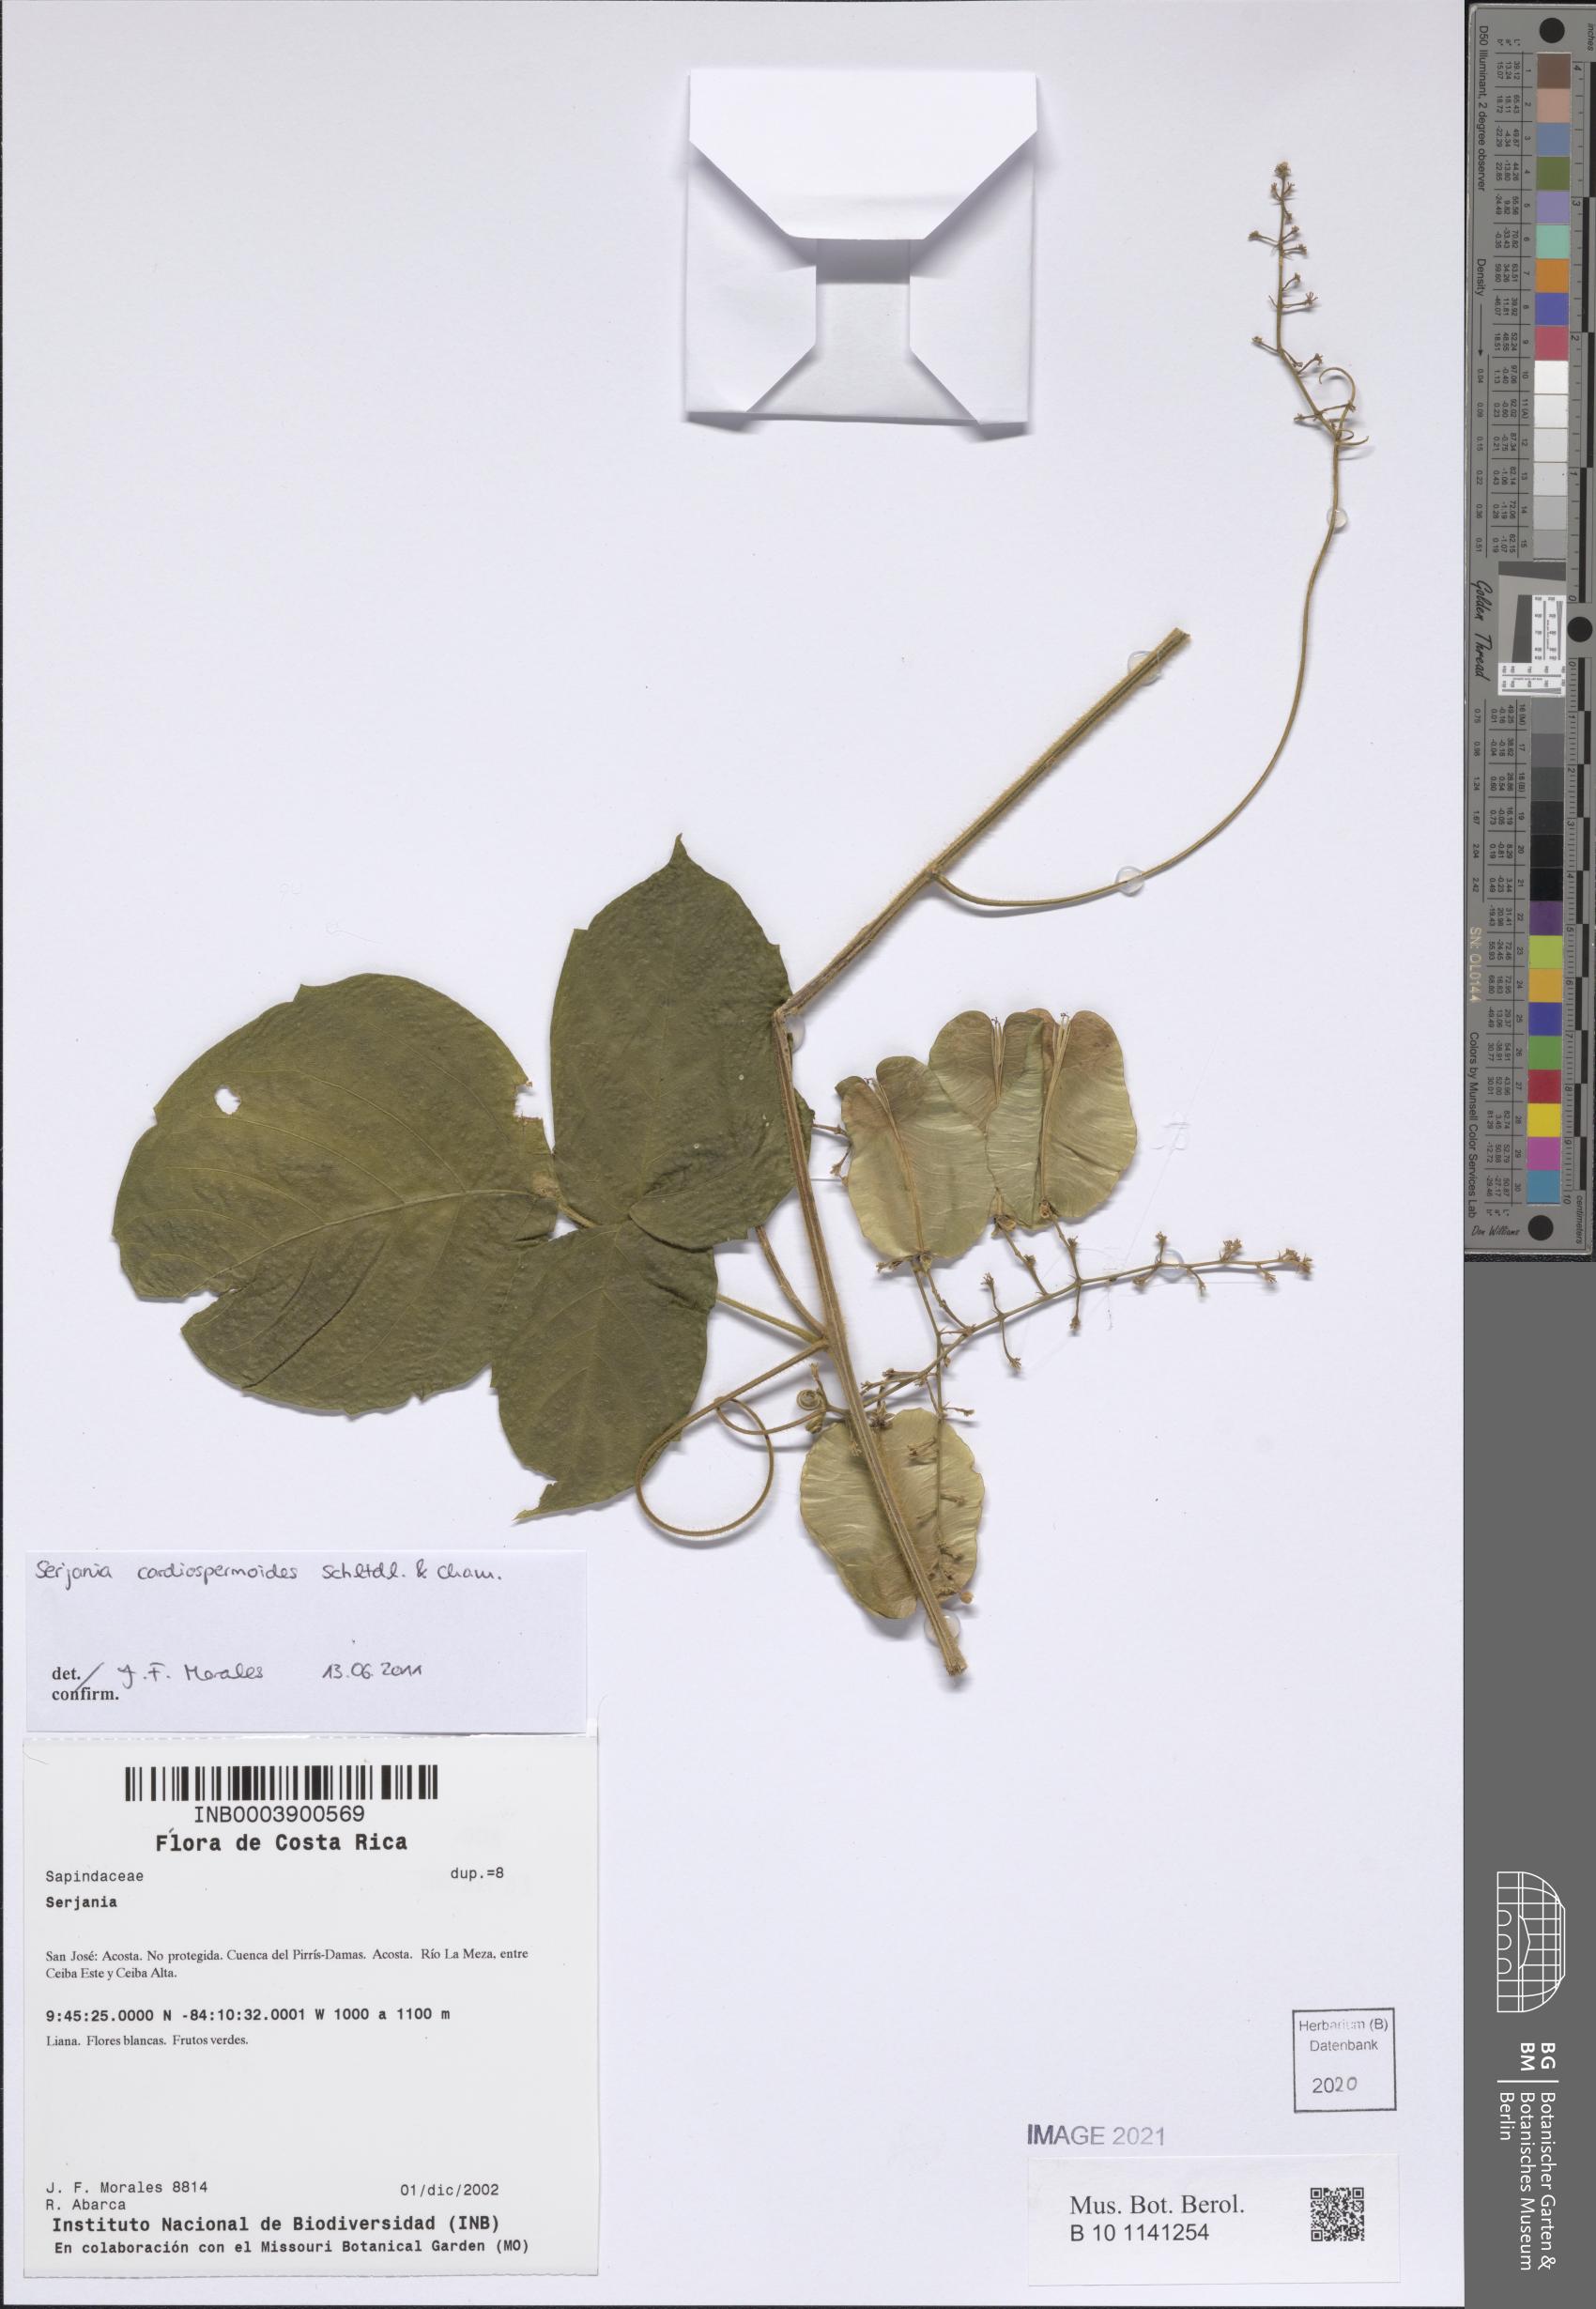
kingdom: Plantae
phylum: Tracheophyta
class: Magnoliopsida
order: Sapindales
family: Sapindaceae
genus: Serjania
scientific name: Serjania cardiospermoides
